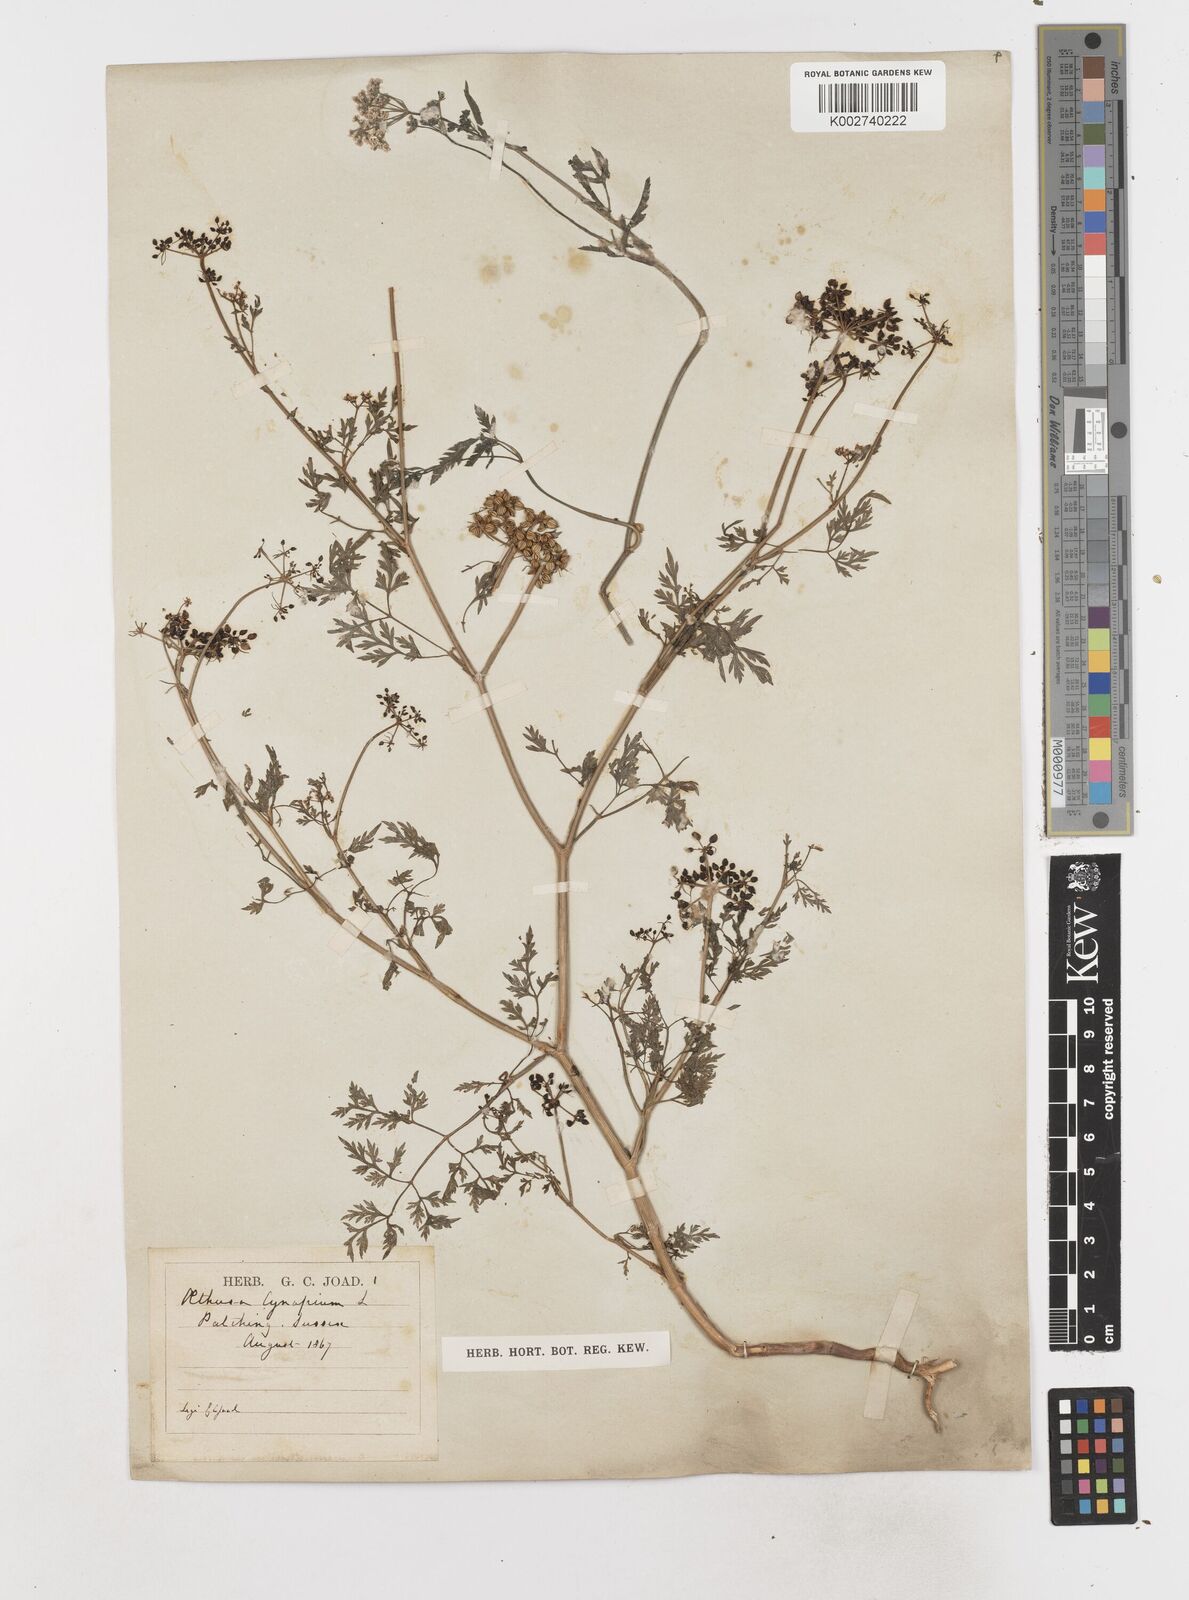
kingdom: Plantae
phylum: Tracheophyta
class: Magnoliopsida
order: Apiales
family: Apiaceae
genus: Aethusa
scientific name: Aethusa cynapium
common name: Fool's parsley
